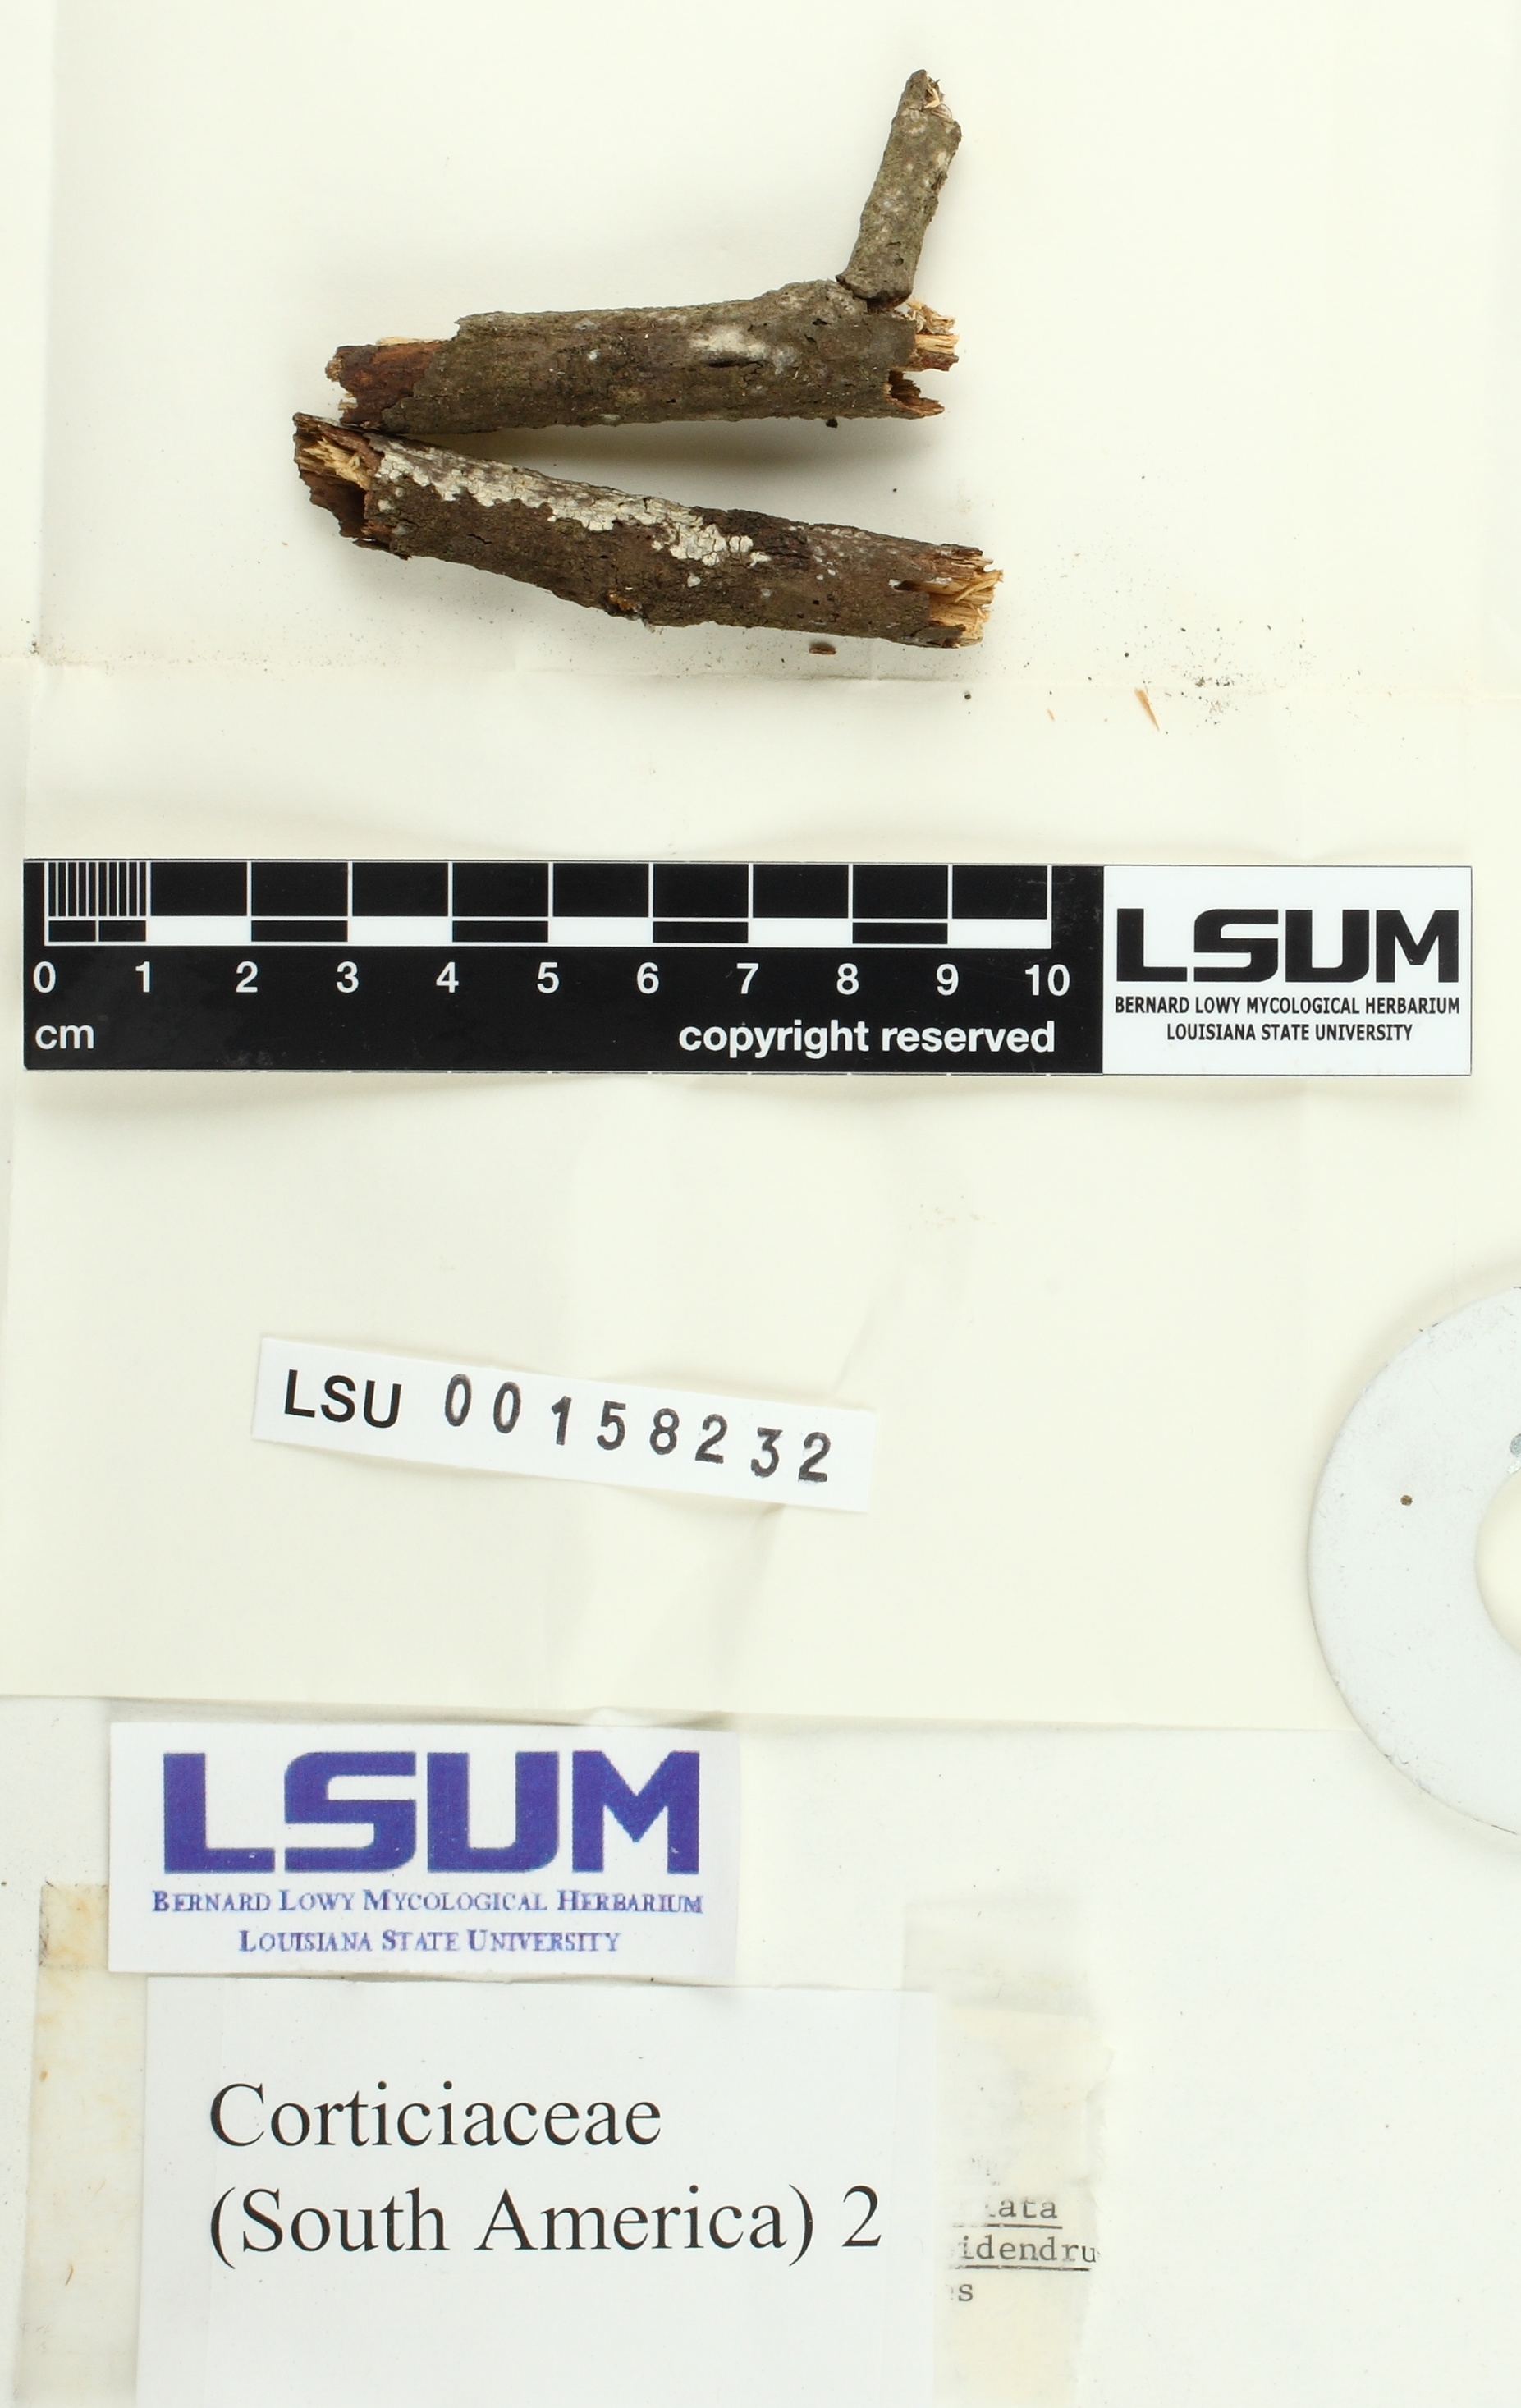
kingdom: Fungi
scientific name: Fungi
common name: Fungi
